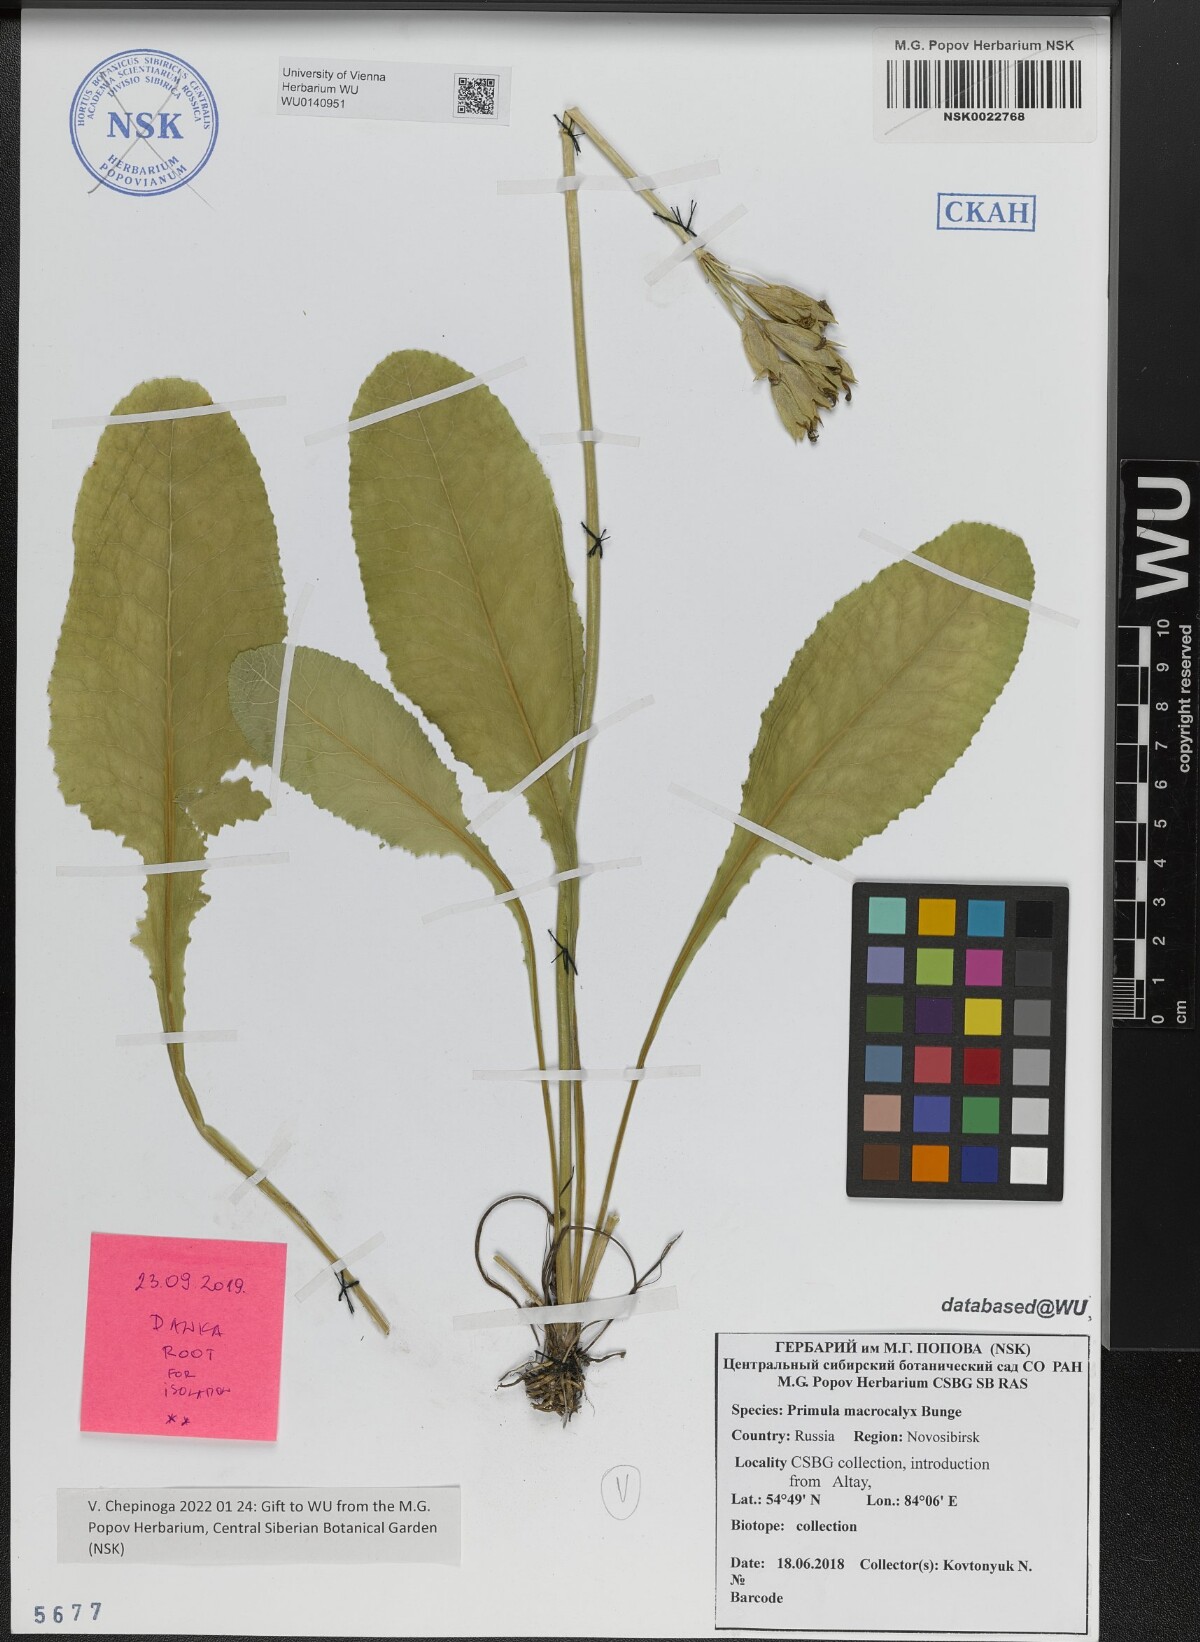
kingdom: Plantae
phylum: Tracheophyta
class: Magnoliopsida
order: Ericales
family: Primulaceae
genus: Primula
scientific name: Primula veris
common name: Cowslip
